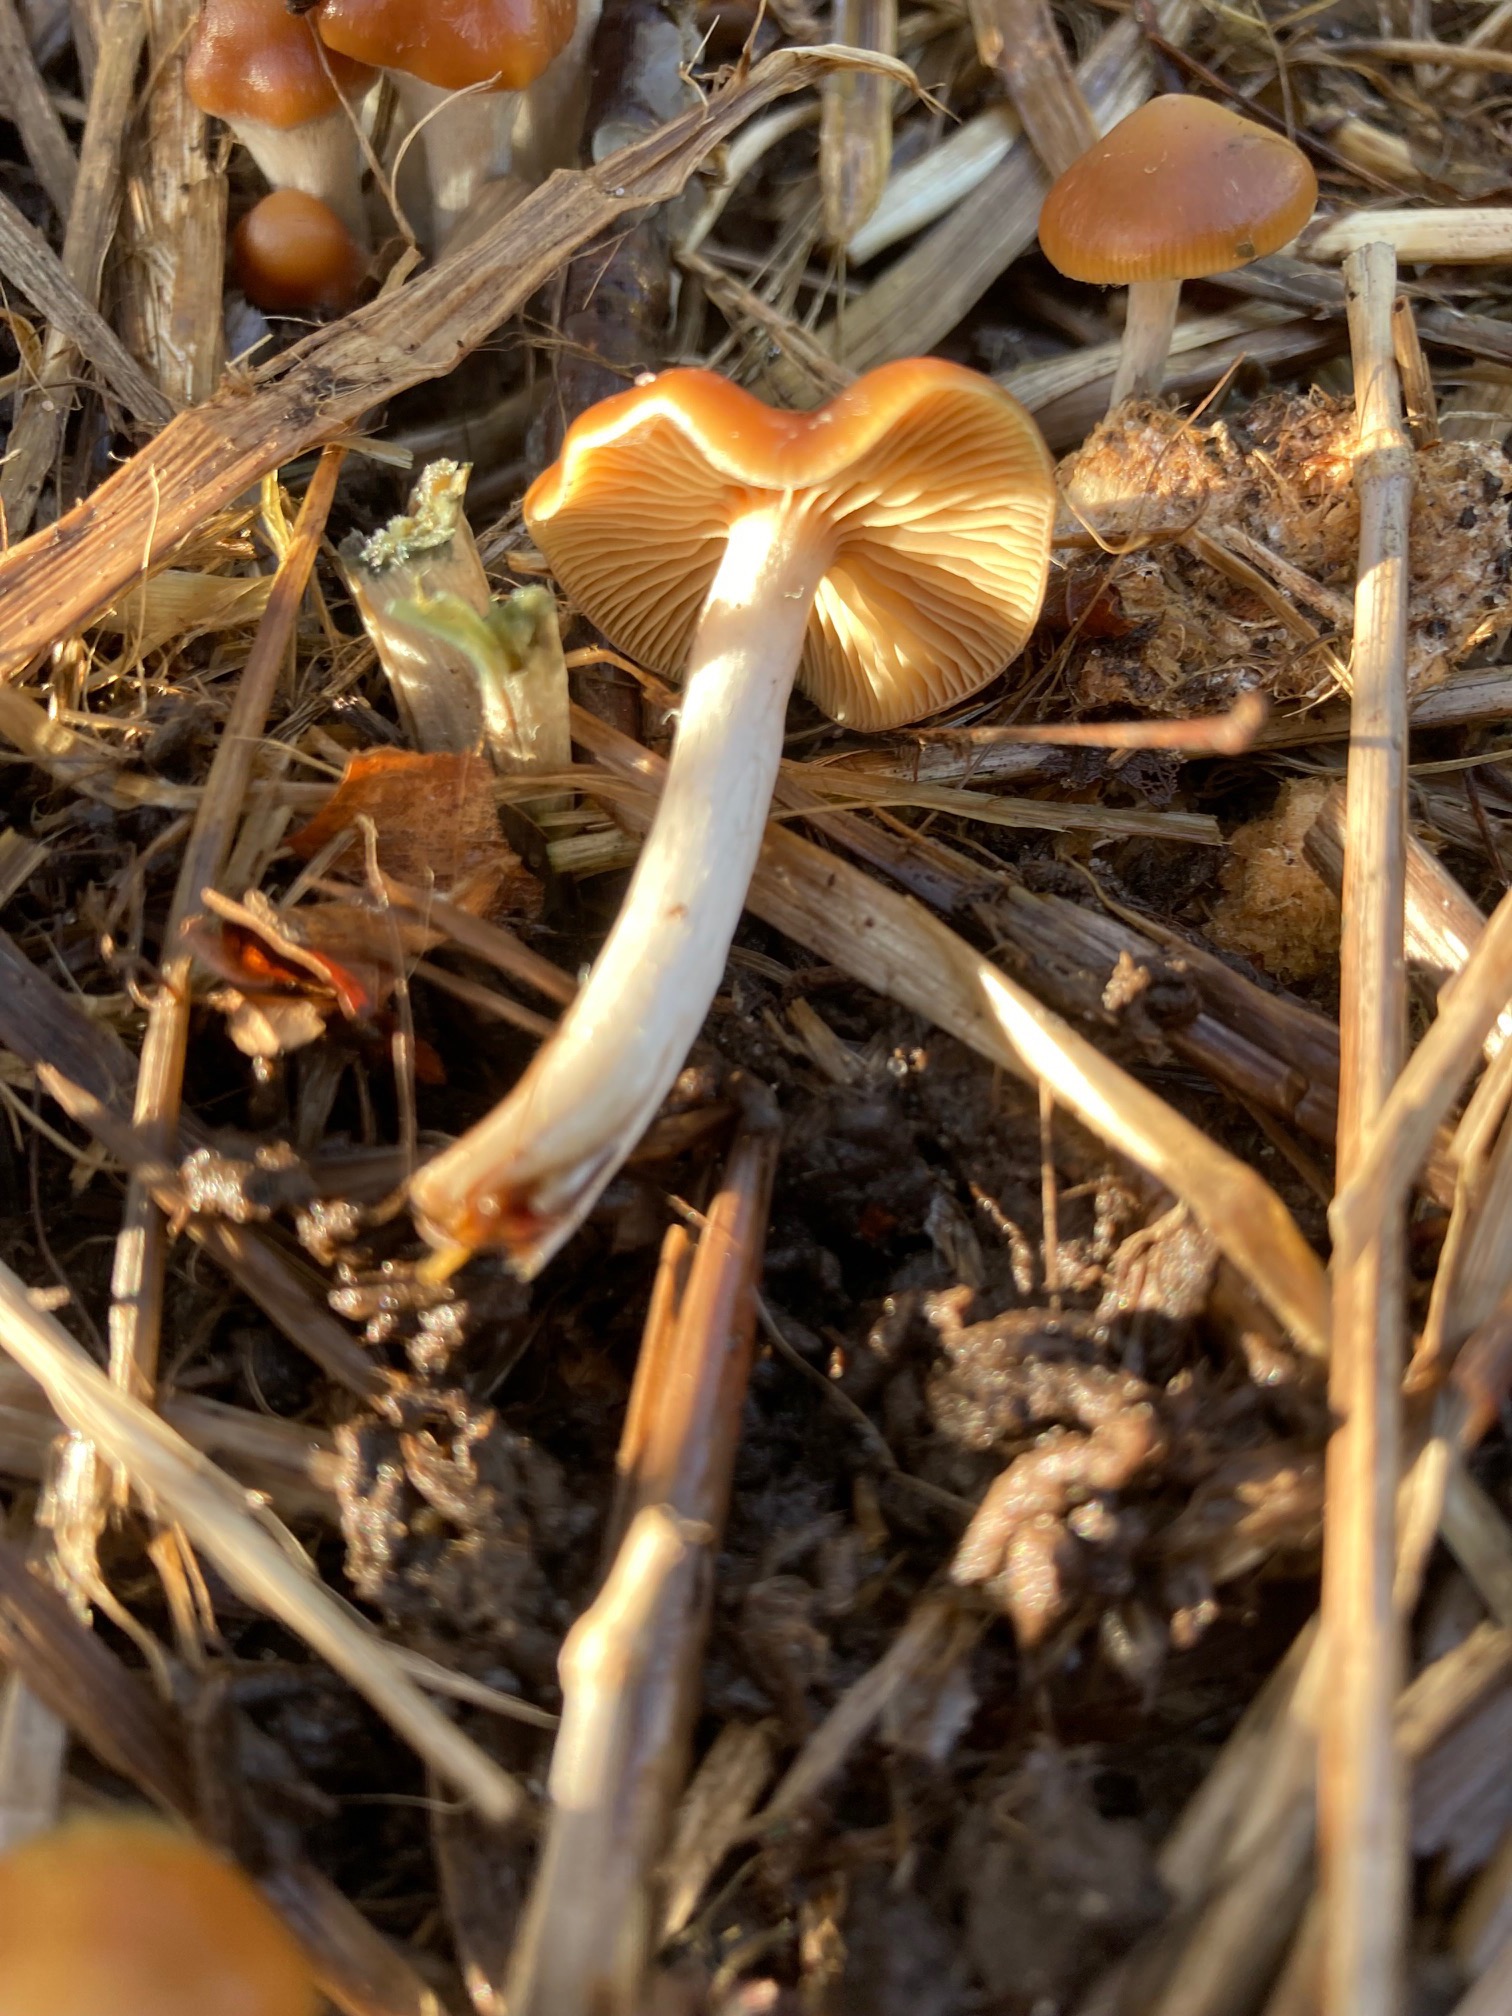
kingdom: Fungi
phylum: Basidiomycota
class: Agaricomycetes
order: Agaricales
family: Hymenogastraceae
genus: Psilocybe
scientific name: Psilocybe cyanescens
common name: blånende nøgenhat
